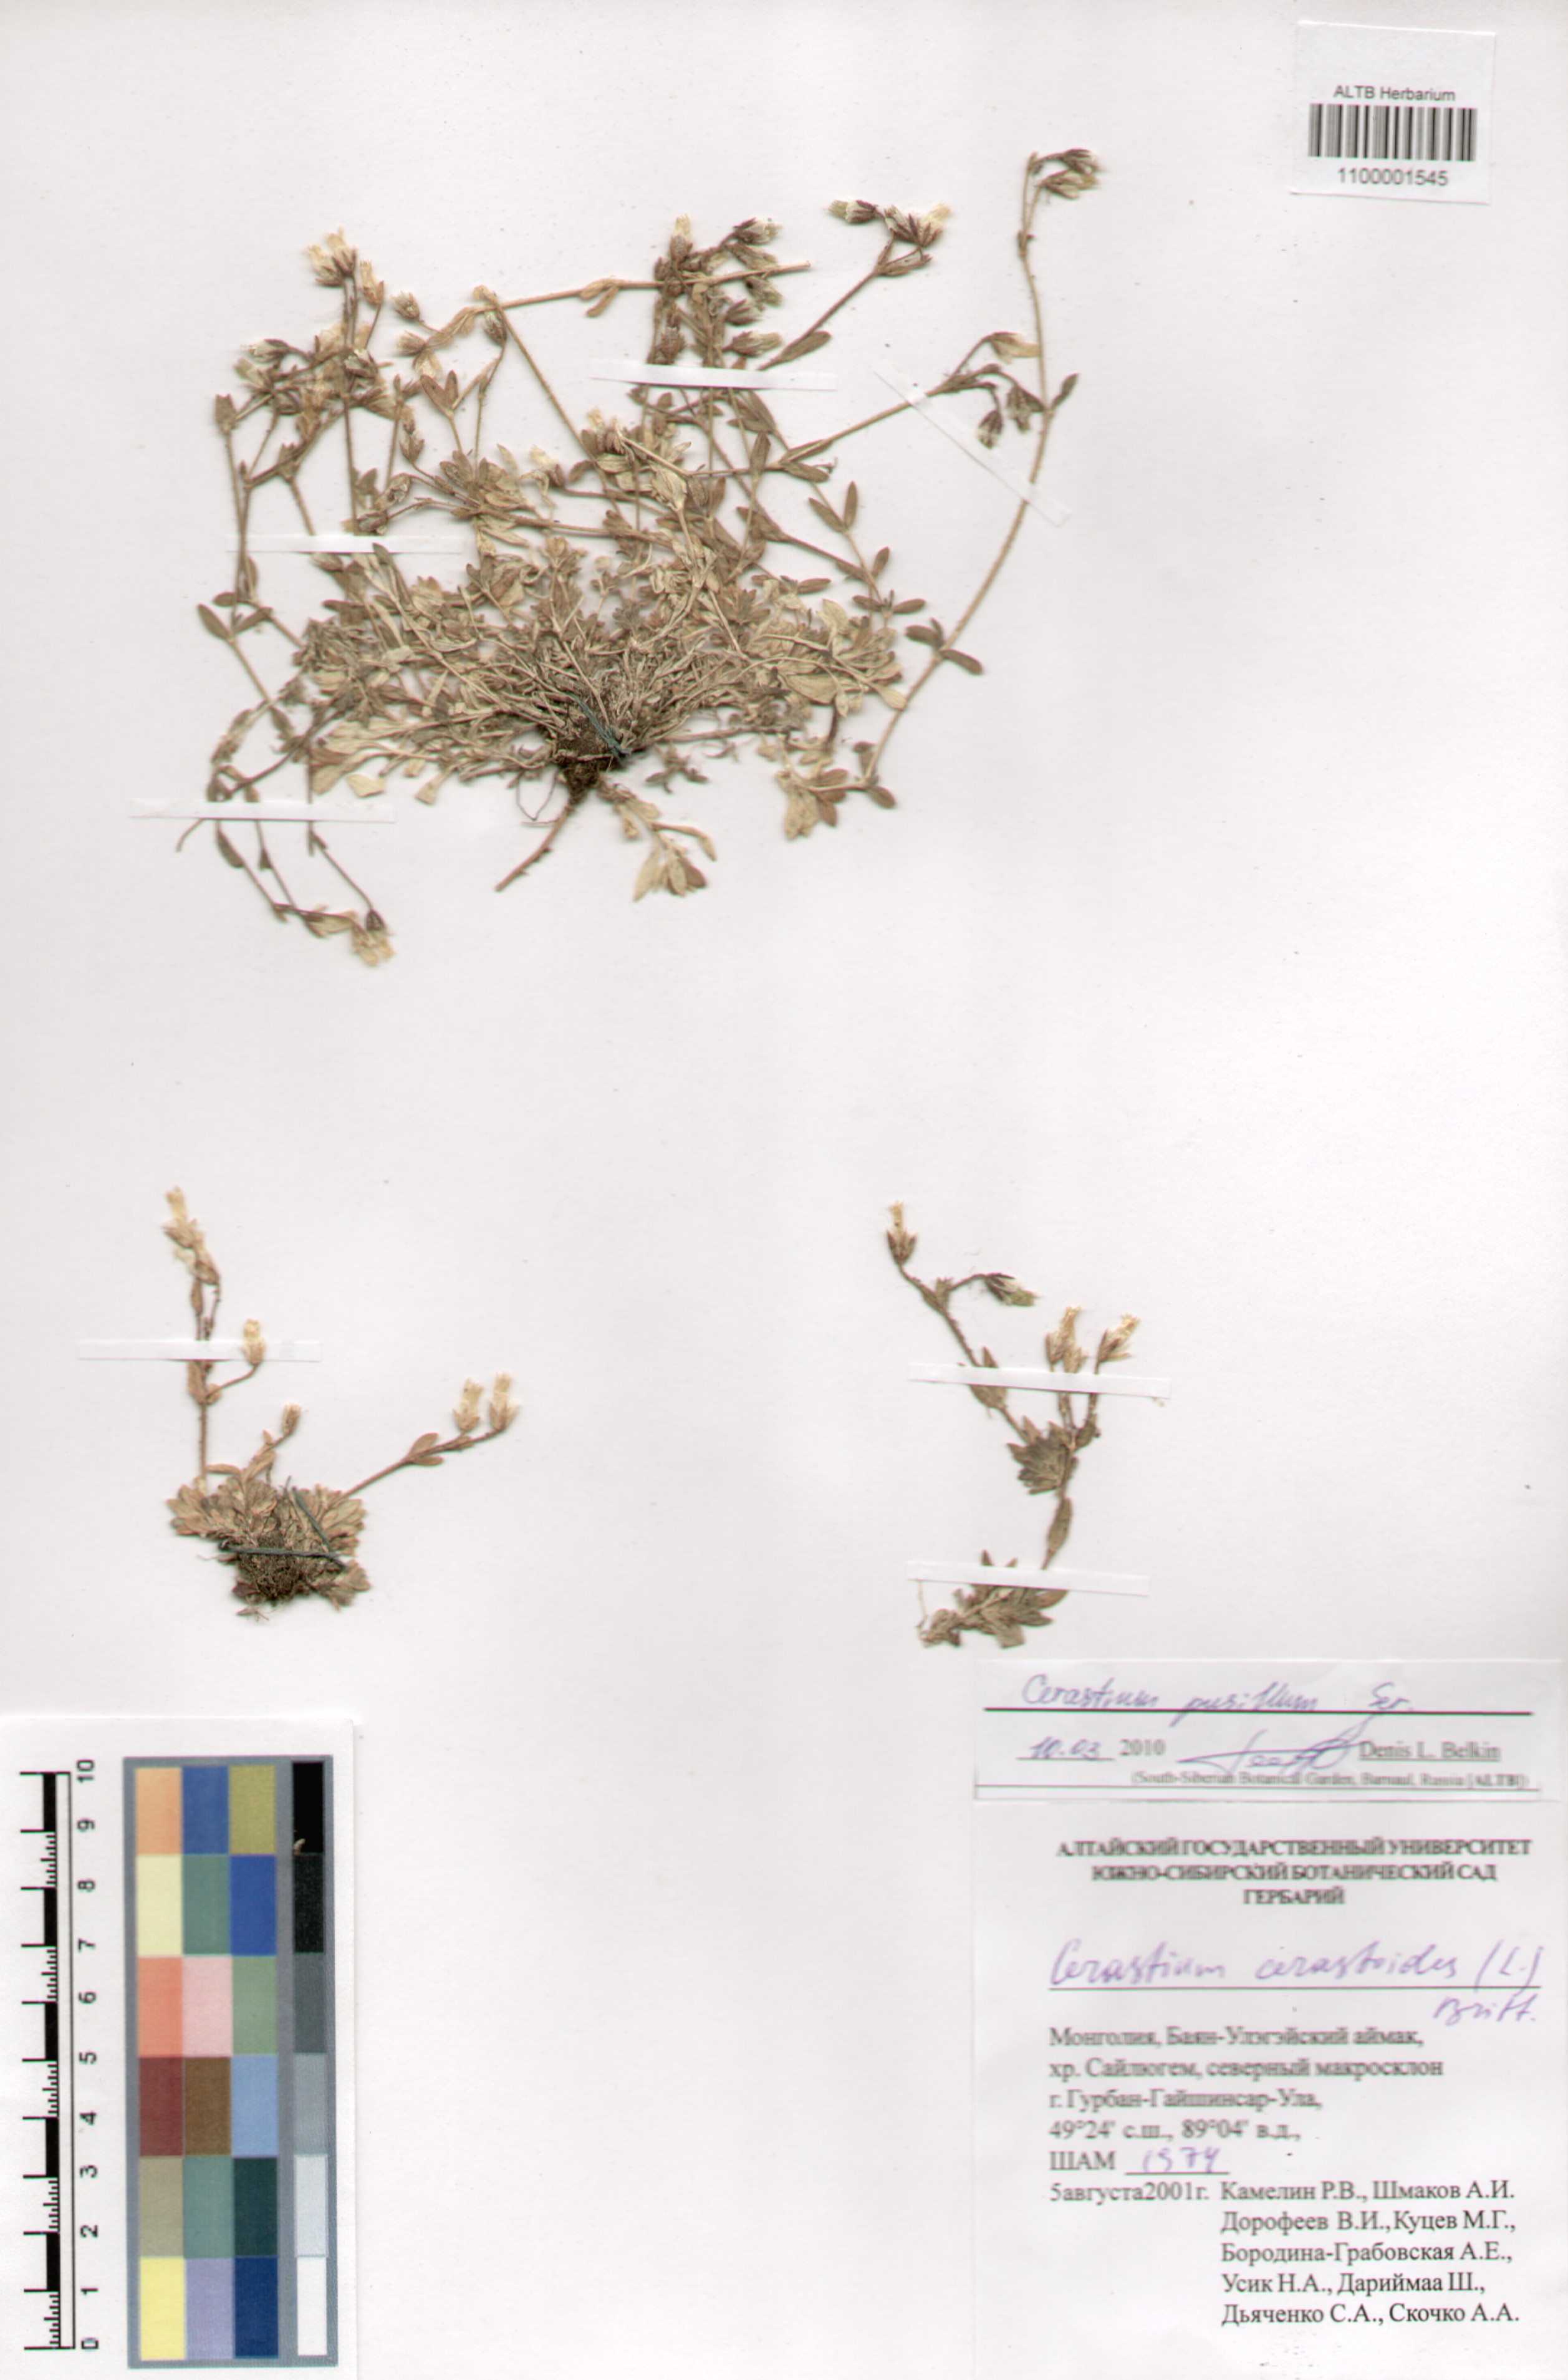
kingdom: Plantae
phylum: Tracheophyta
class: Magnoliopsida
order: Caryophyllales
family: Caryophyllaceae
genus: Cerastium
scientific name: Cerastium pusillum
